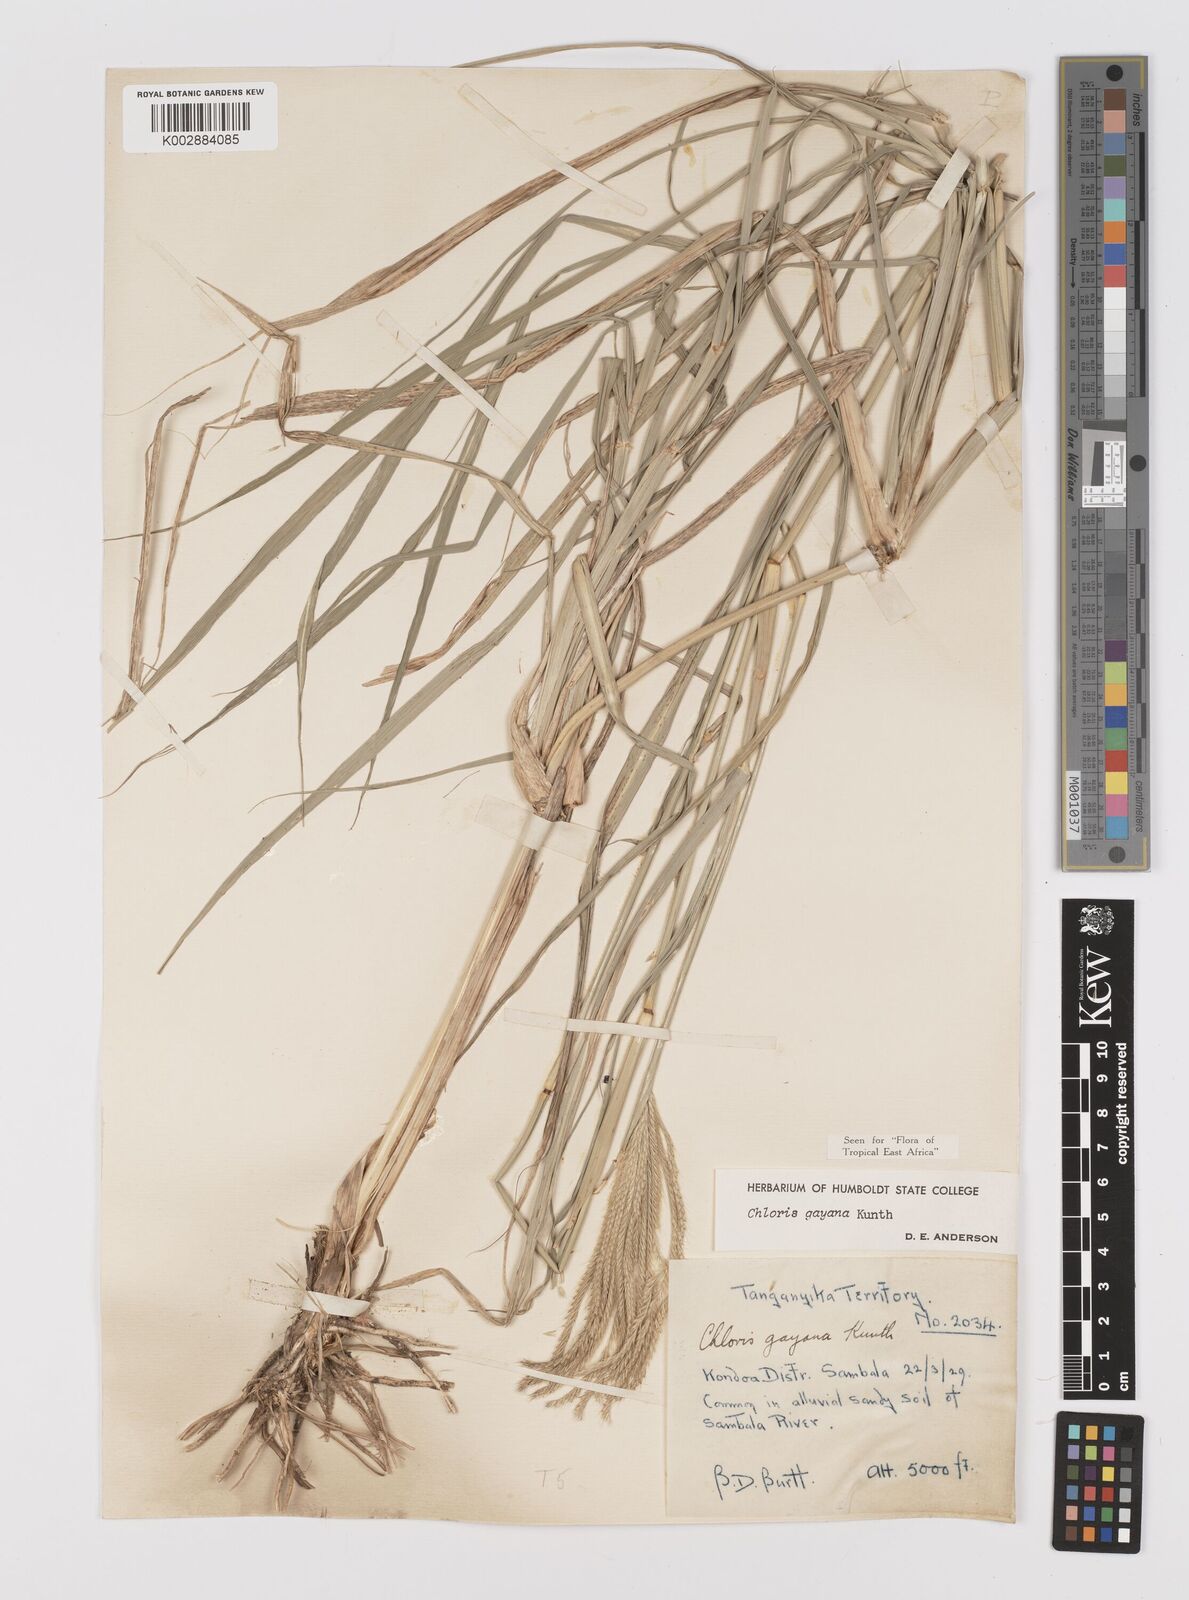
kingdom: Plantae
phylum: Tracheophyta
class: Liliopsida
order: Poales
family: Poaceae
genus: Chloris
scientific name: Chloris gayana
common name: Rhodes grass
